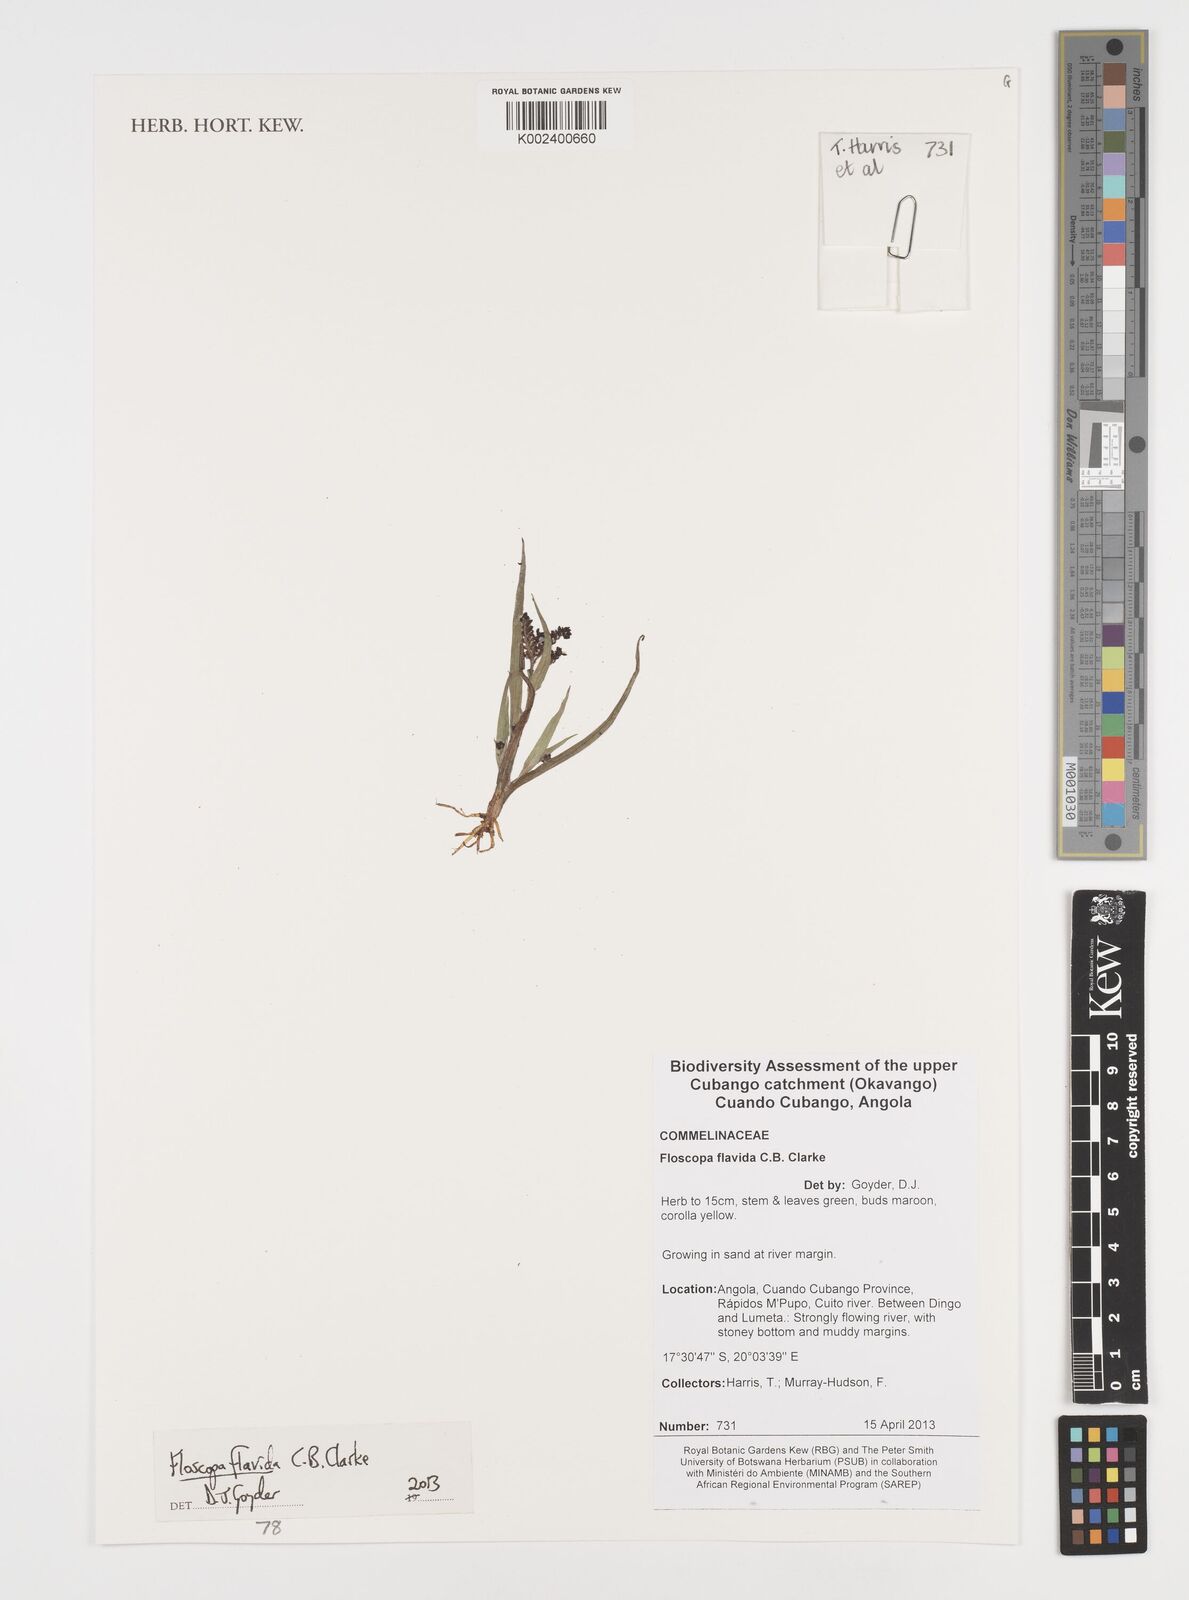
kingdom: Plantae
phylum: Tracheophyta
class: Liliopsida
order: Commelinales
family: Commelinaceae
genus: Floscopa
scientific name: Floscopa flavida
